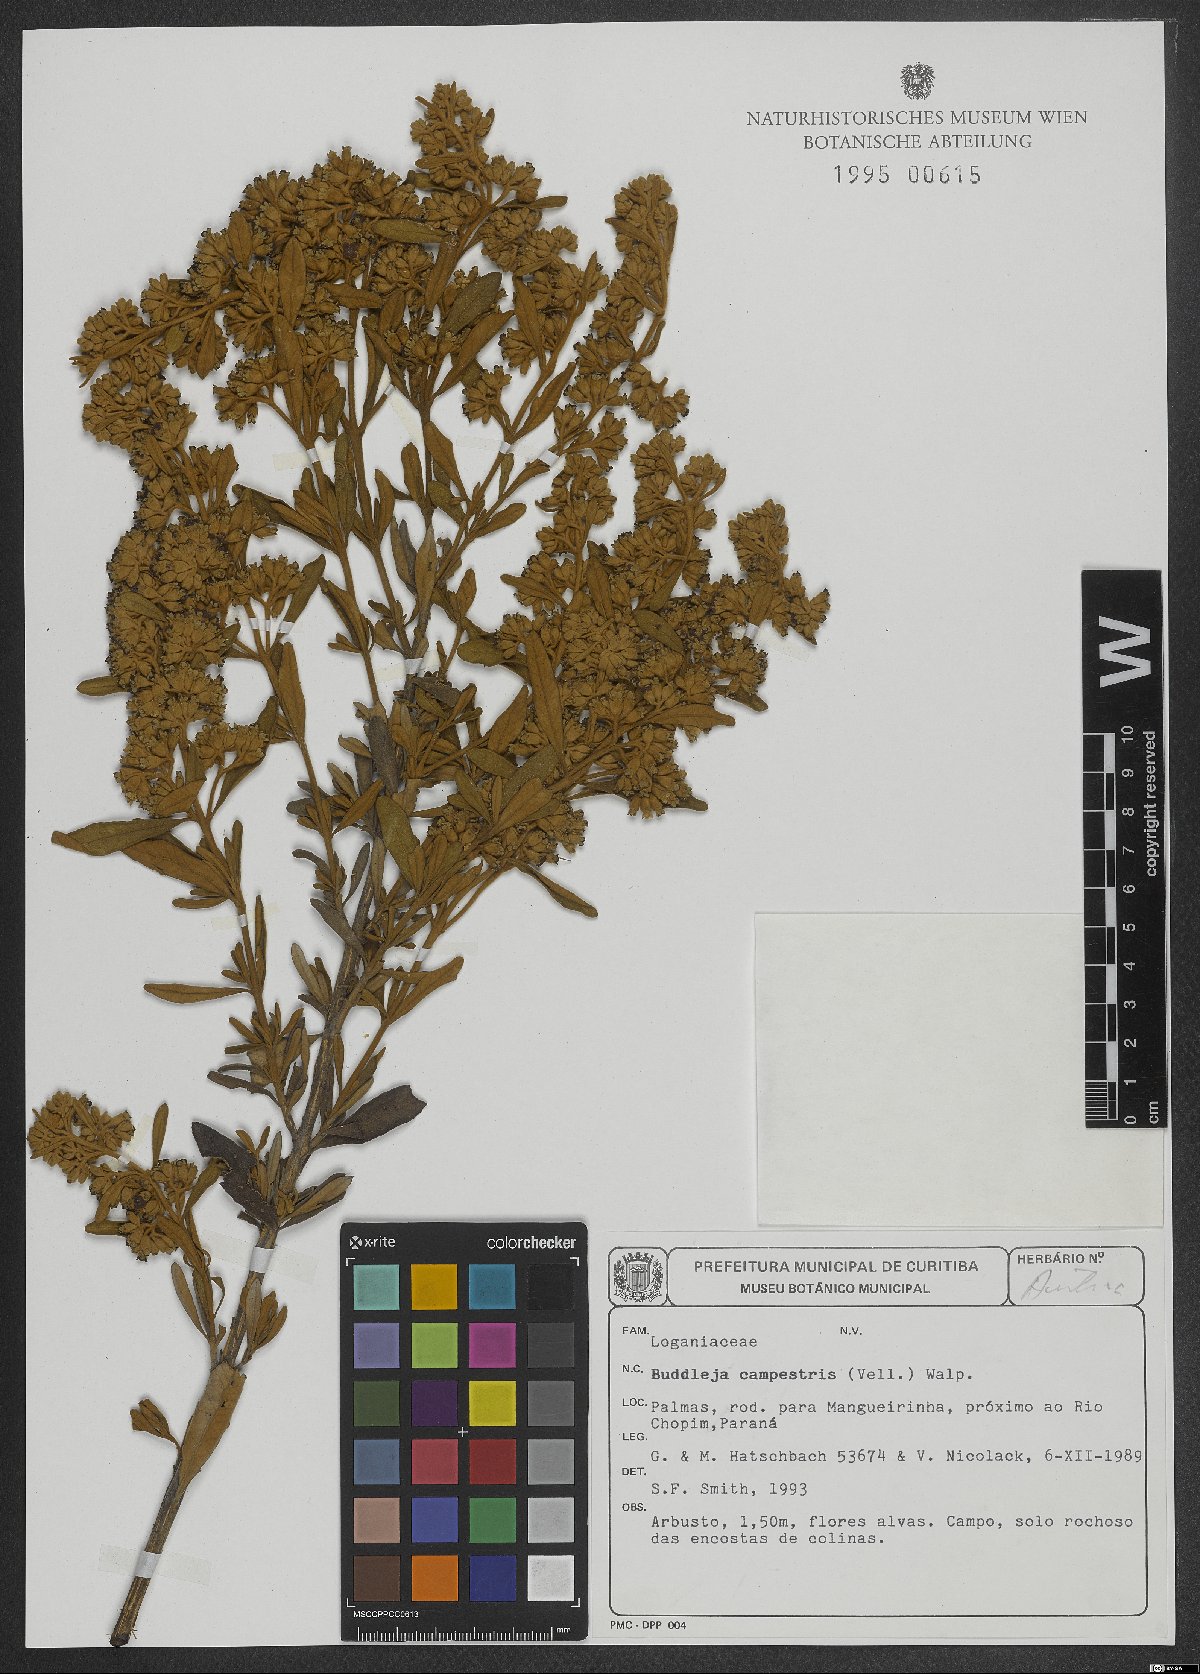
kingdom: Plantae
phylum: Tracheophyta
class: Magnoliopsida
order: Lamiales
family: Scrophulariaceae
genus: Buddleja
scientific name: Buddleja elegans
